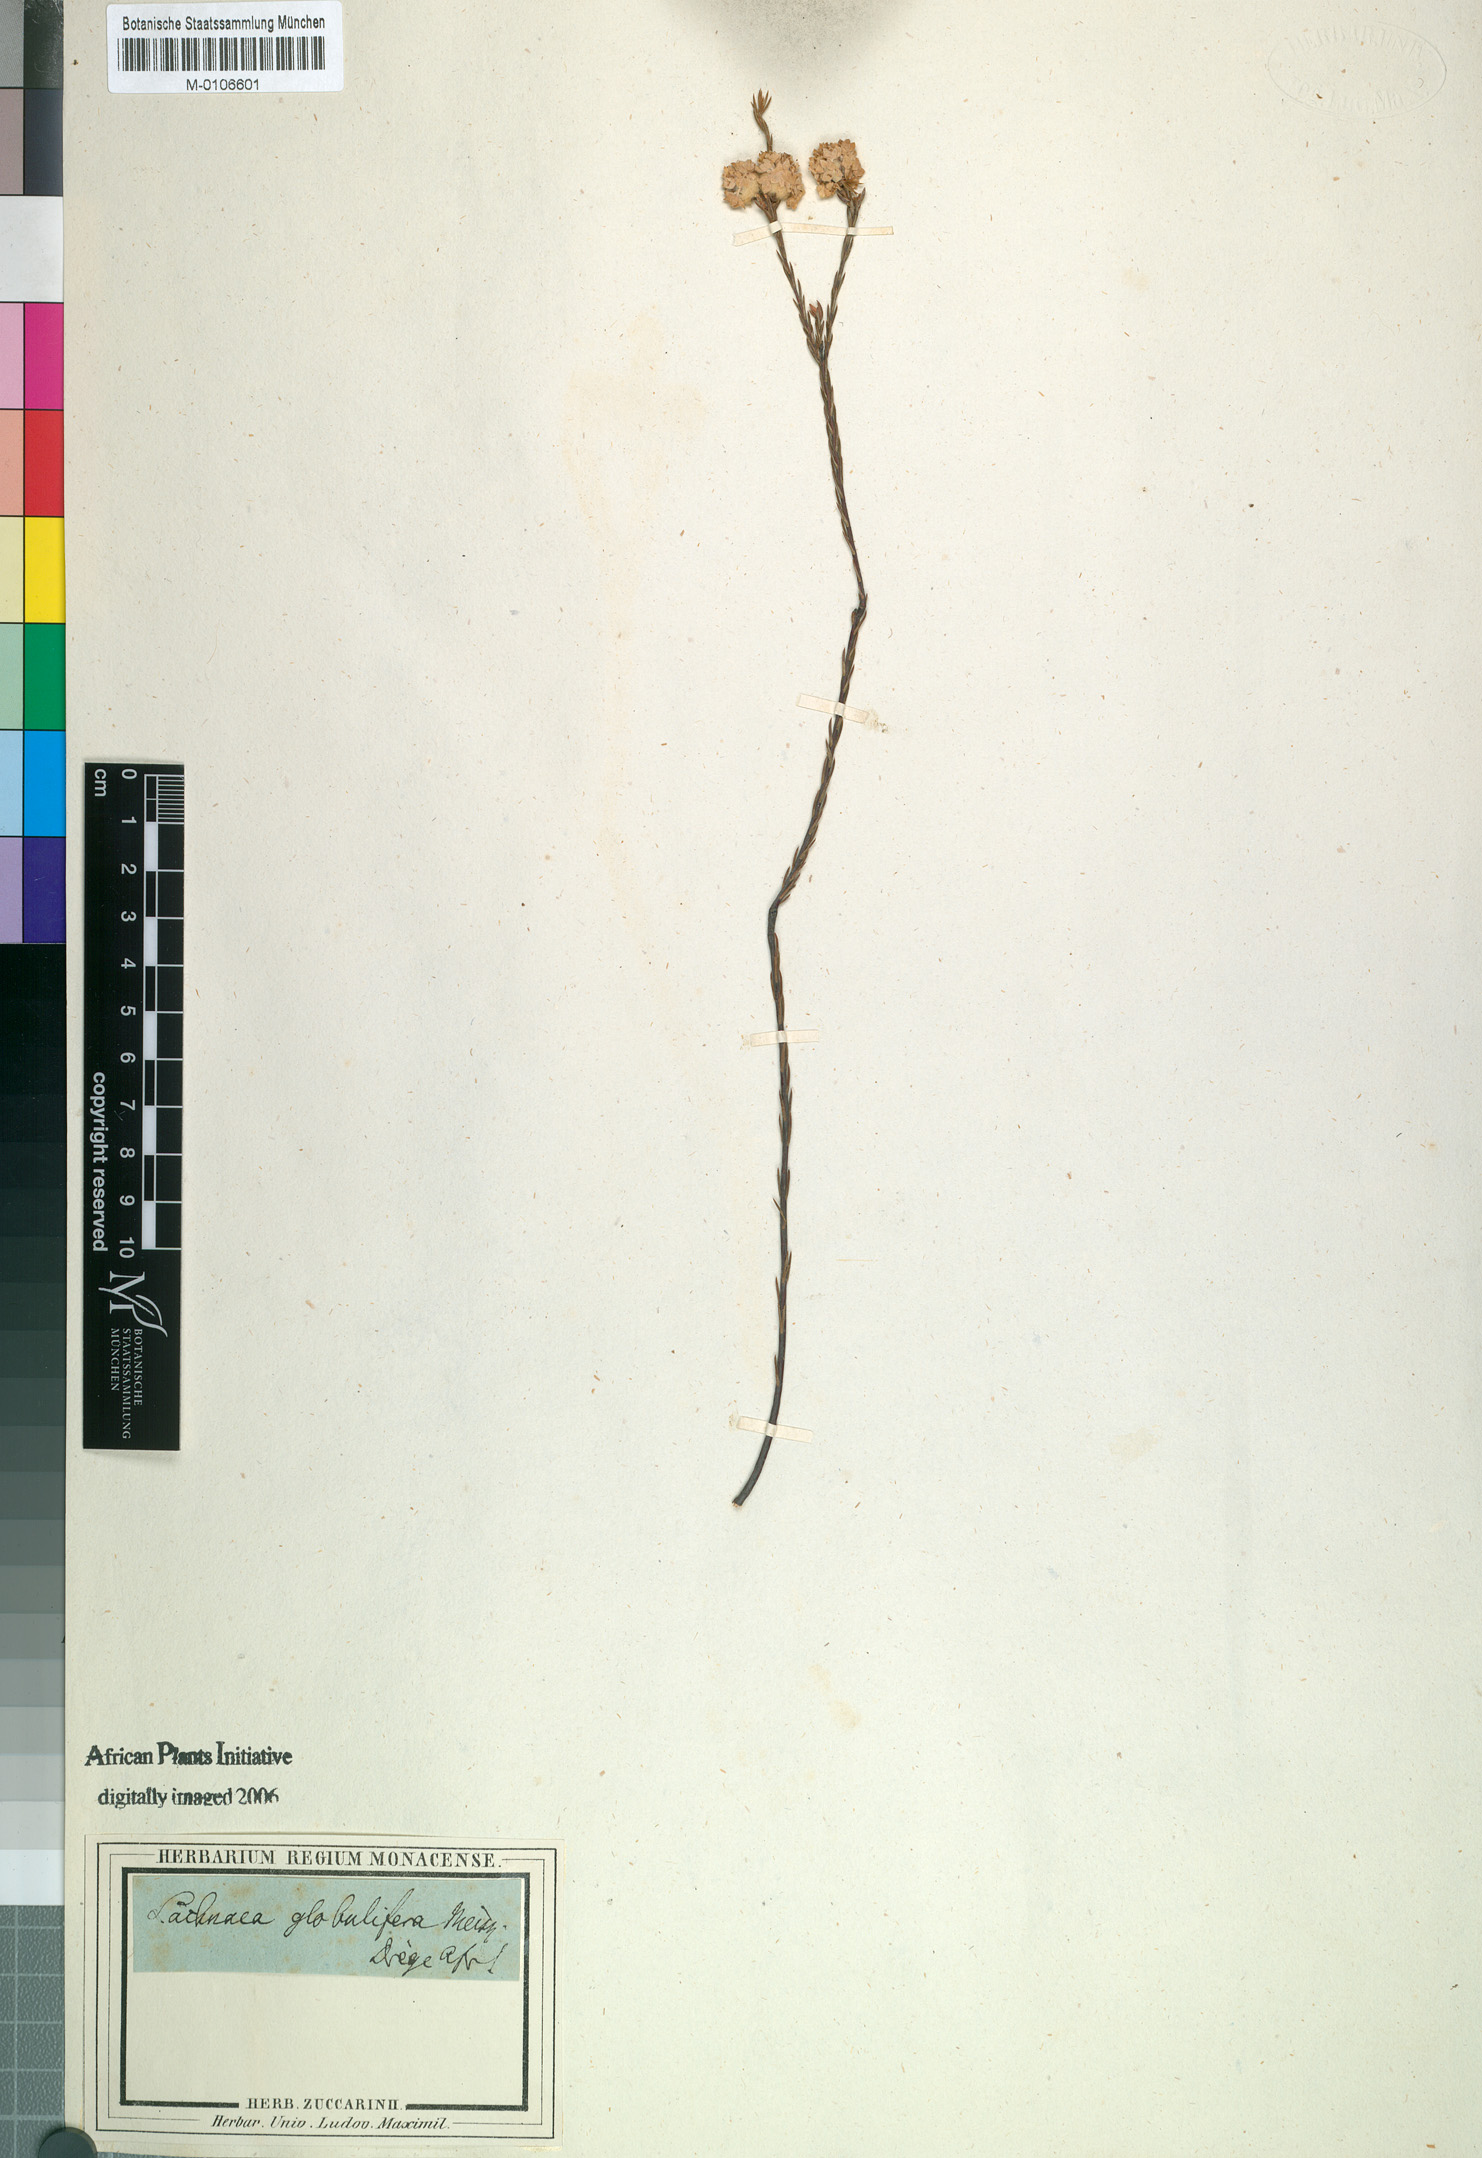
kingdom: Plantae
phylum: Tracheophyta
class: Magnoliopsida
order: Malvales
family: Thymelaeaceae
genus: Lachnaea
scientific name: Lachnaea globulifera
